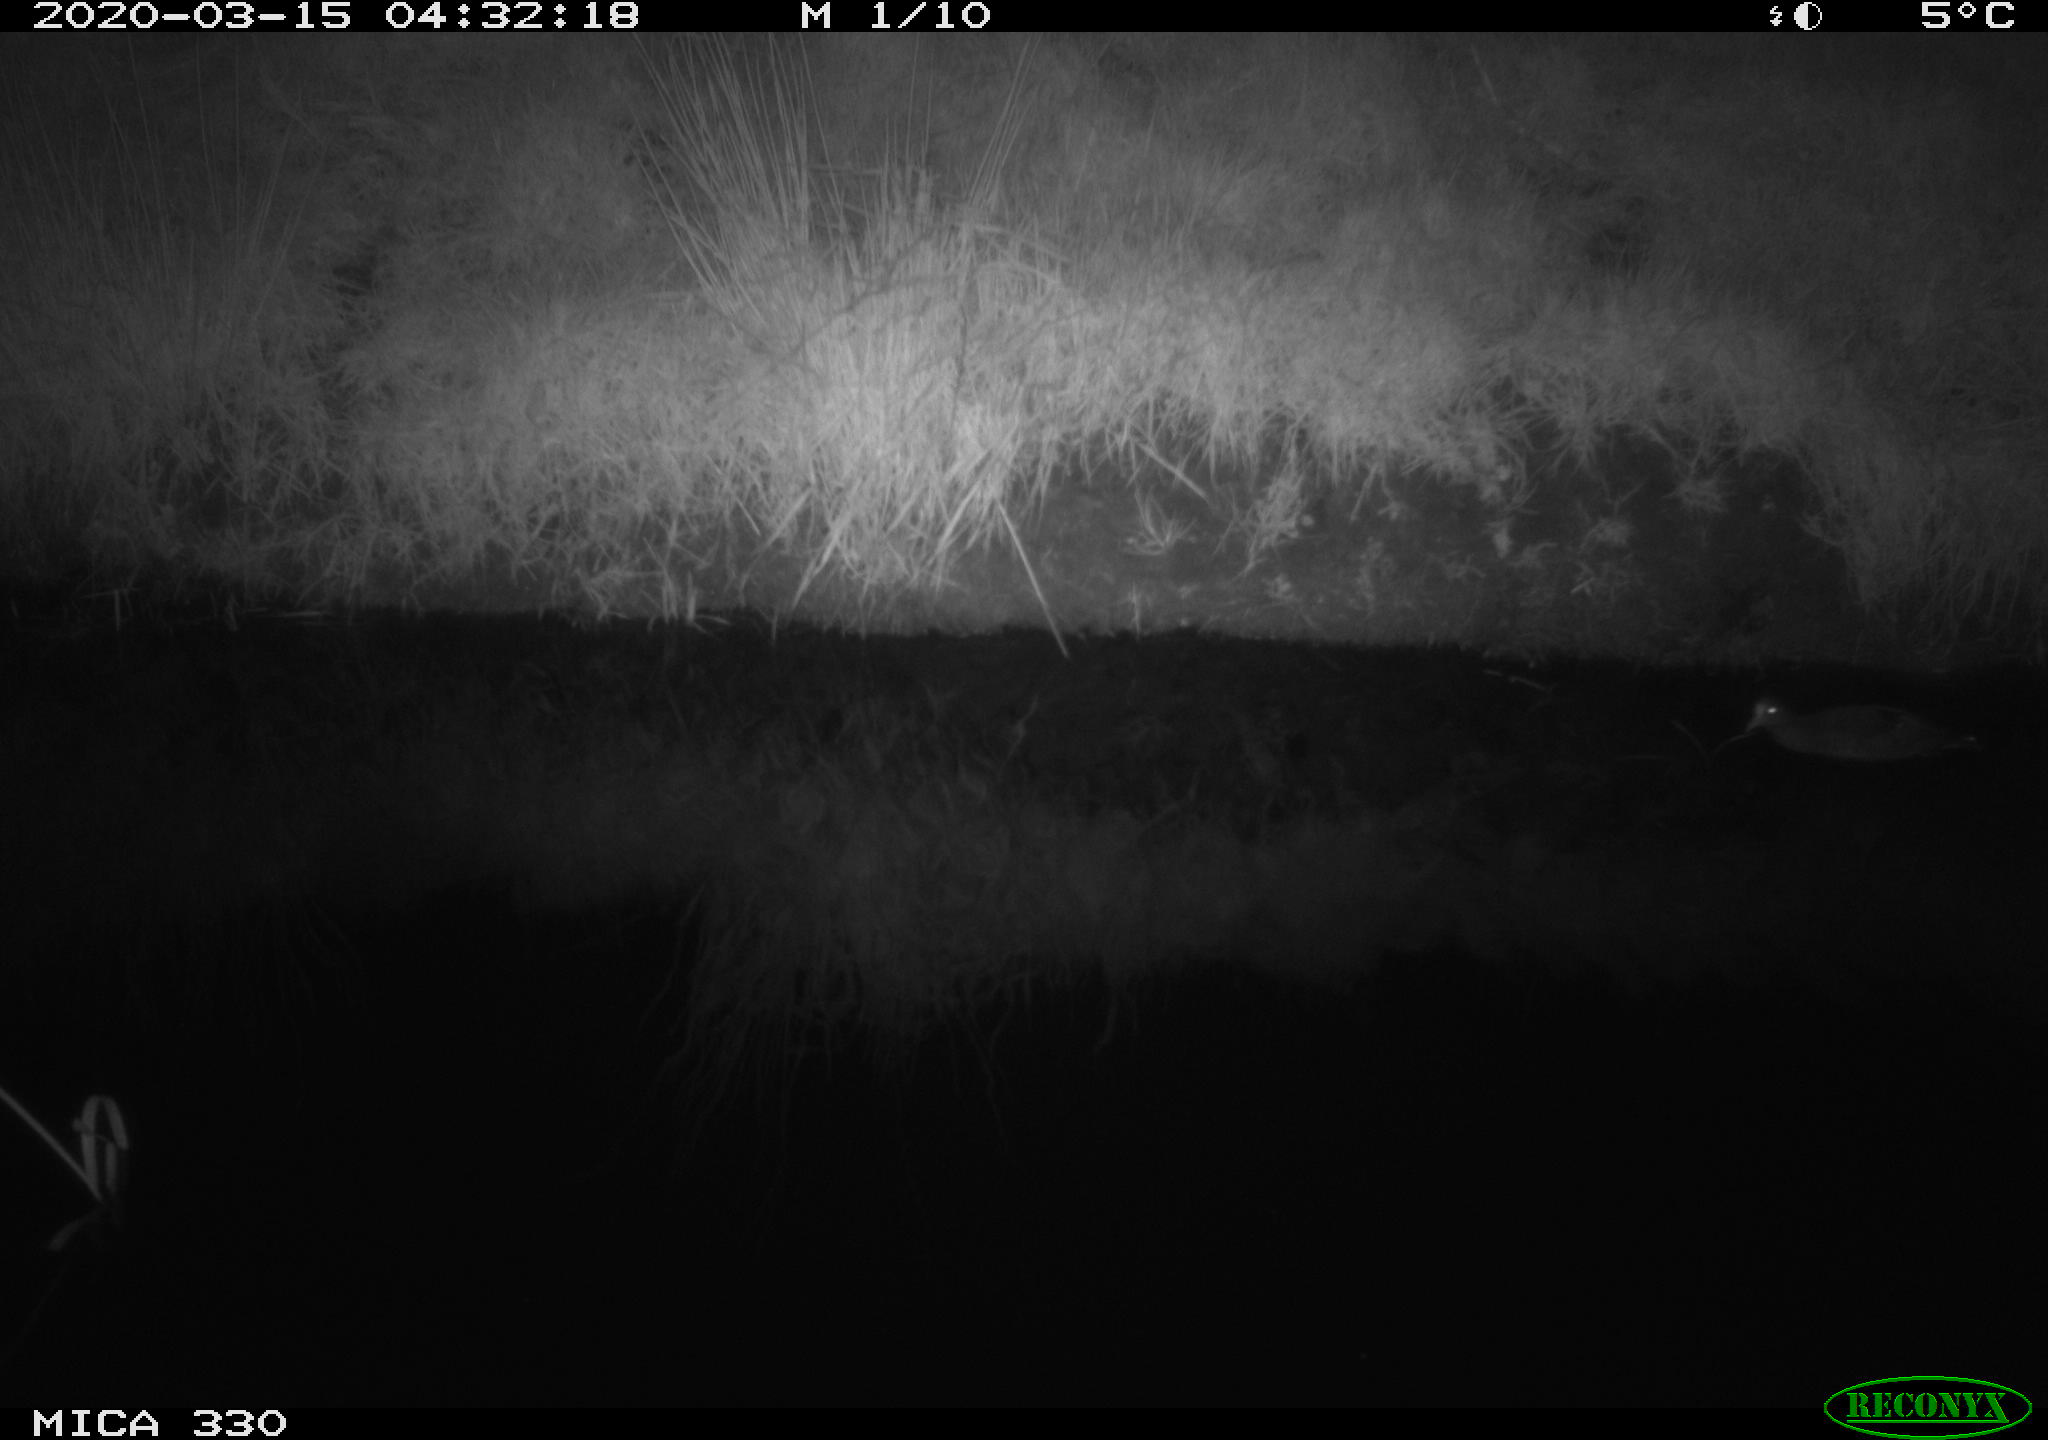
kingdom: Animalia
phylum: Chordata
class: Aves
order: Gruiformes
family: Rallidae
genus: Gallinula
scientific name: Gallinula chloropus
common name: Common moorhen
